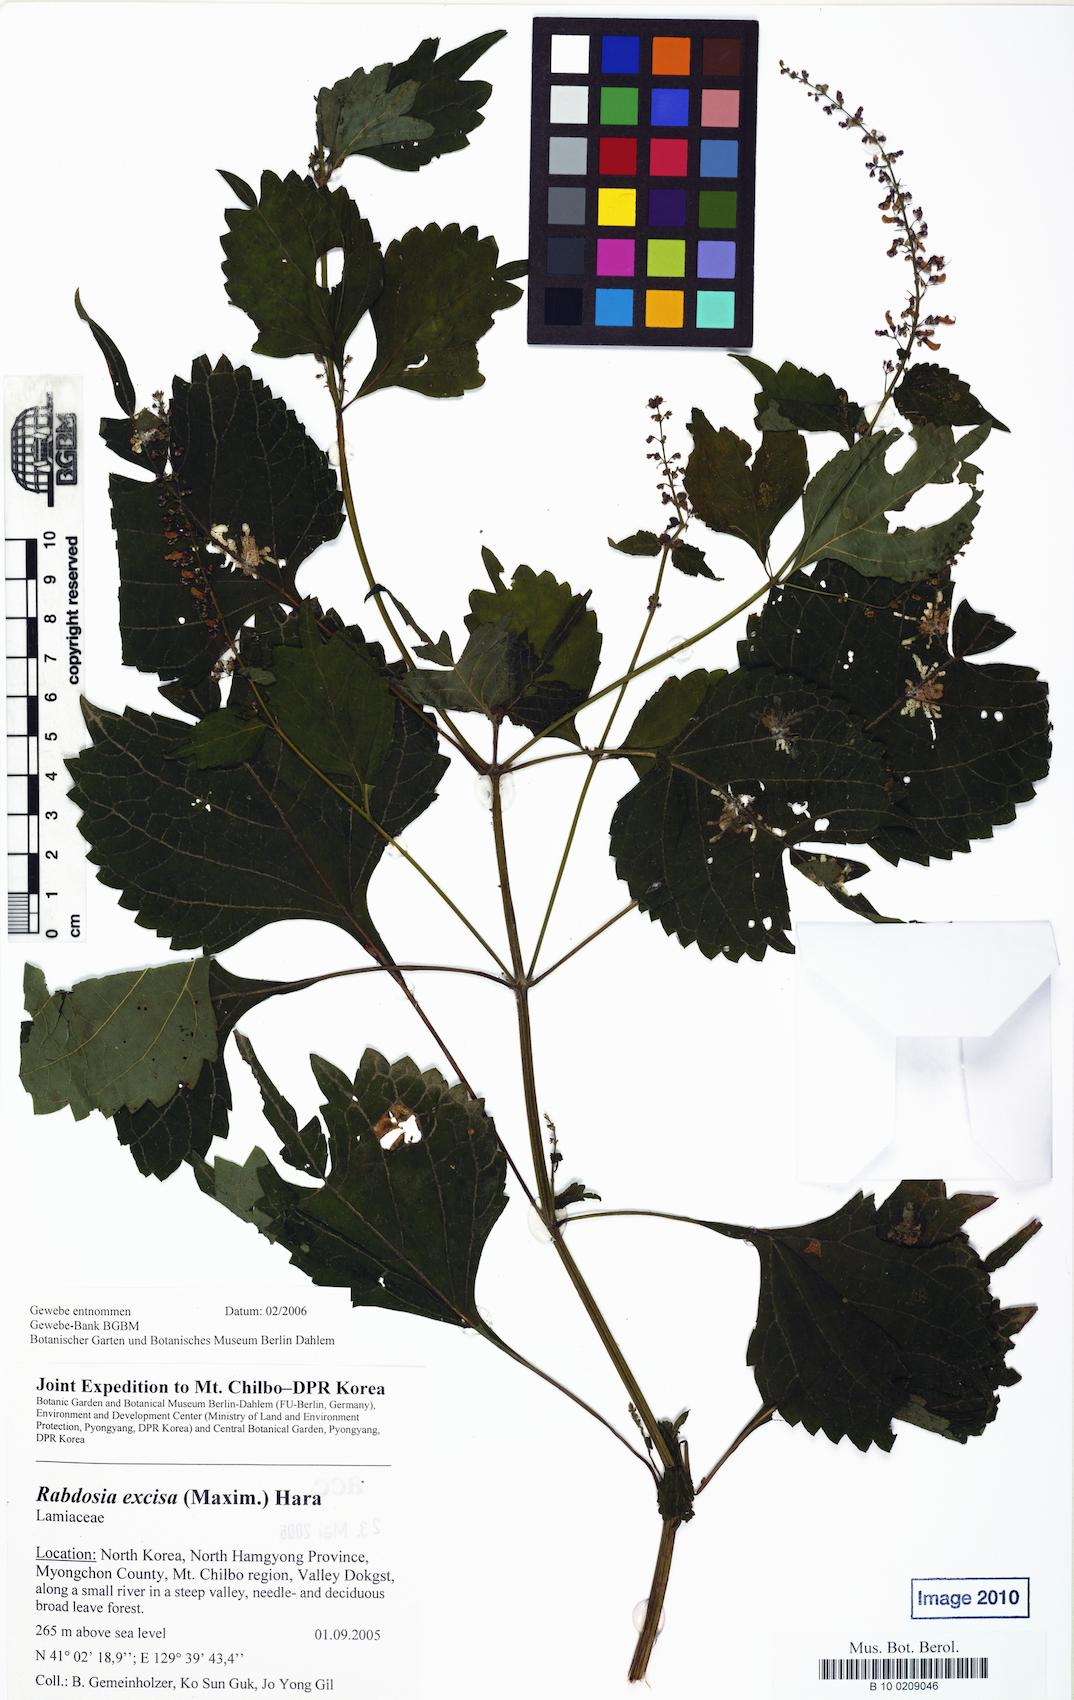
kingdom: Plantae
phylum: Tracheophyta
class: Magnoliopsida
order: Lamiales
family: Lamiaceae
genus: Isodon
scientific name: Isodon excisus
